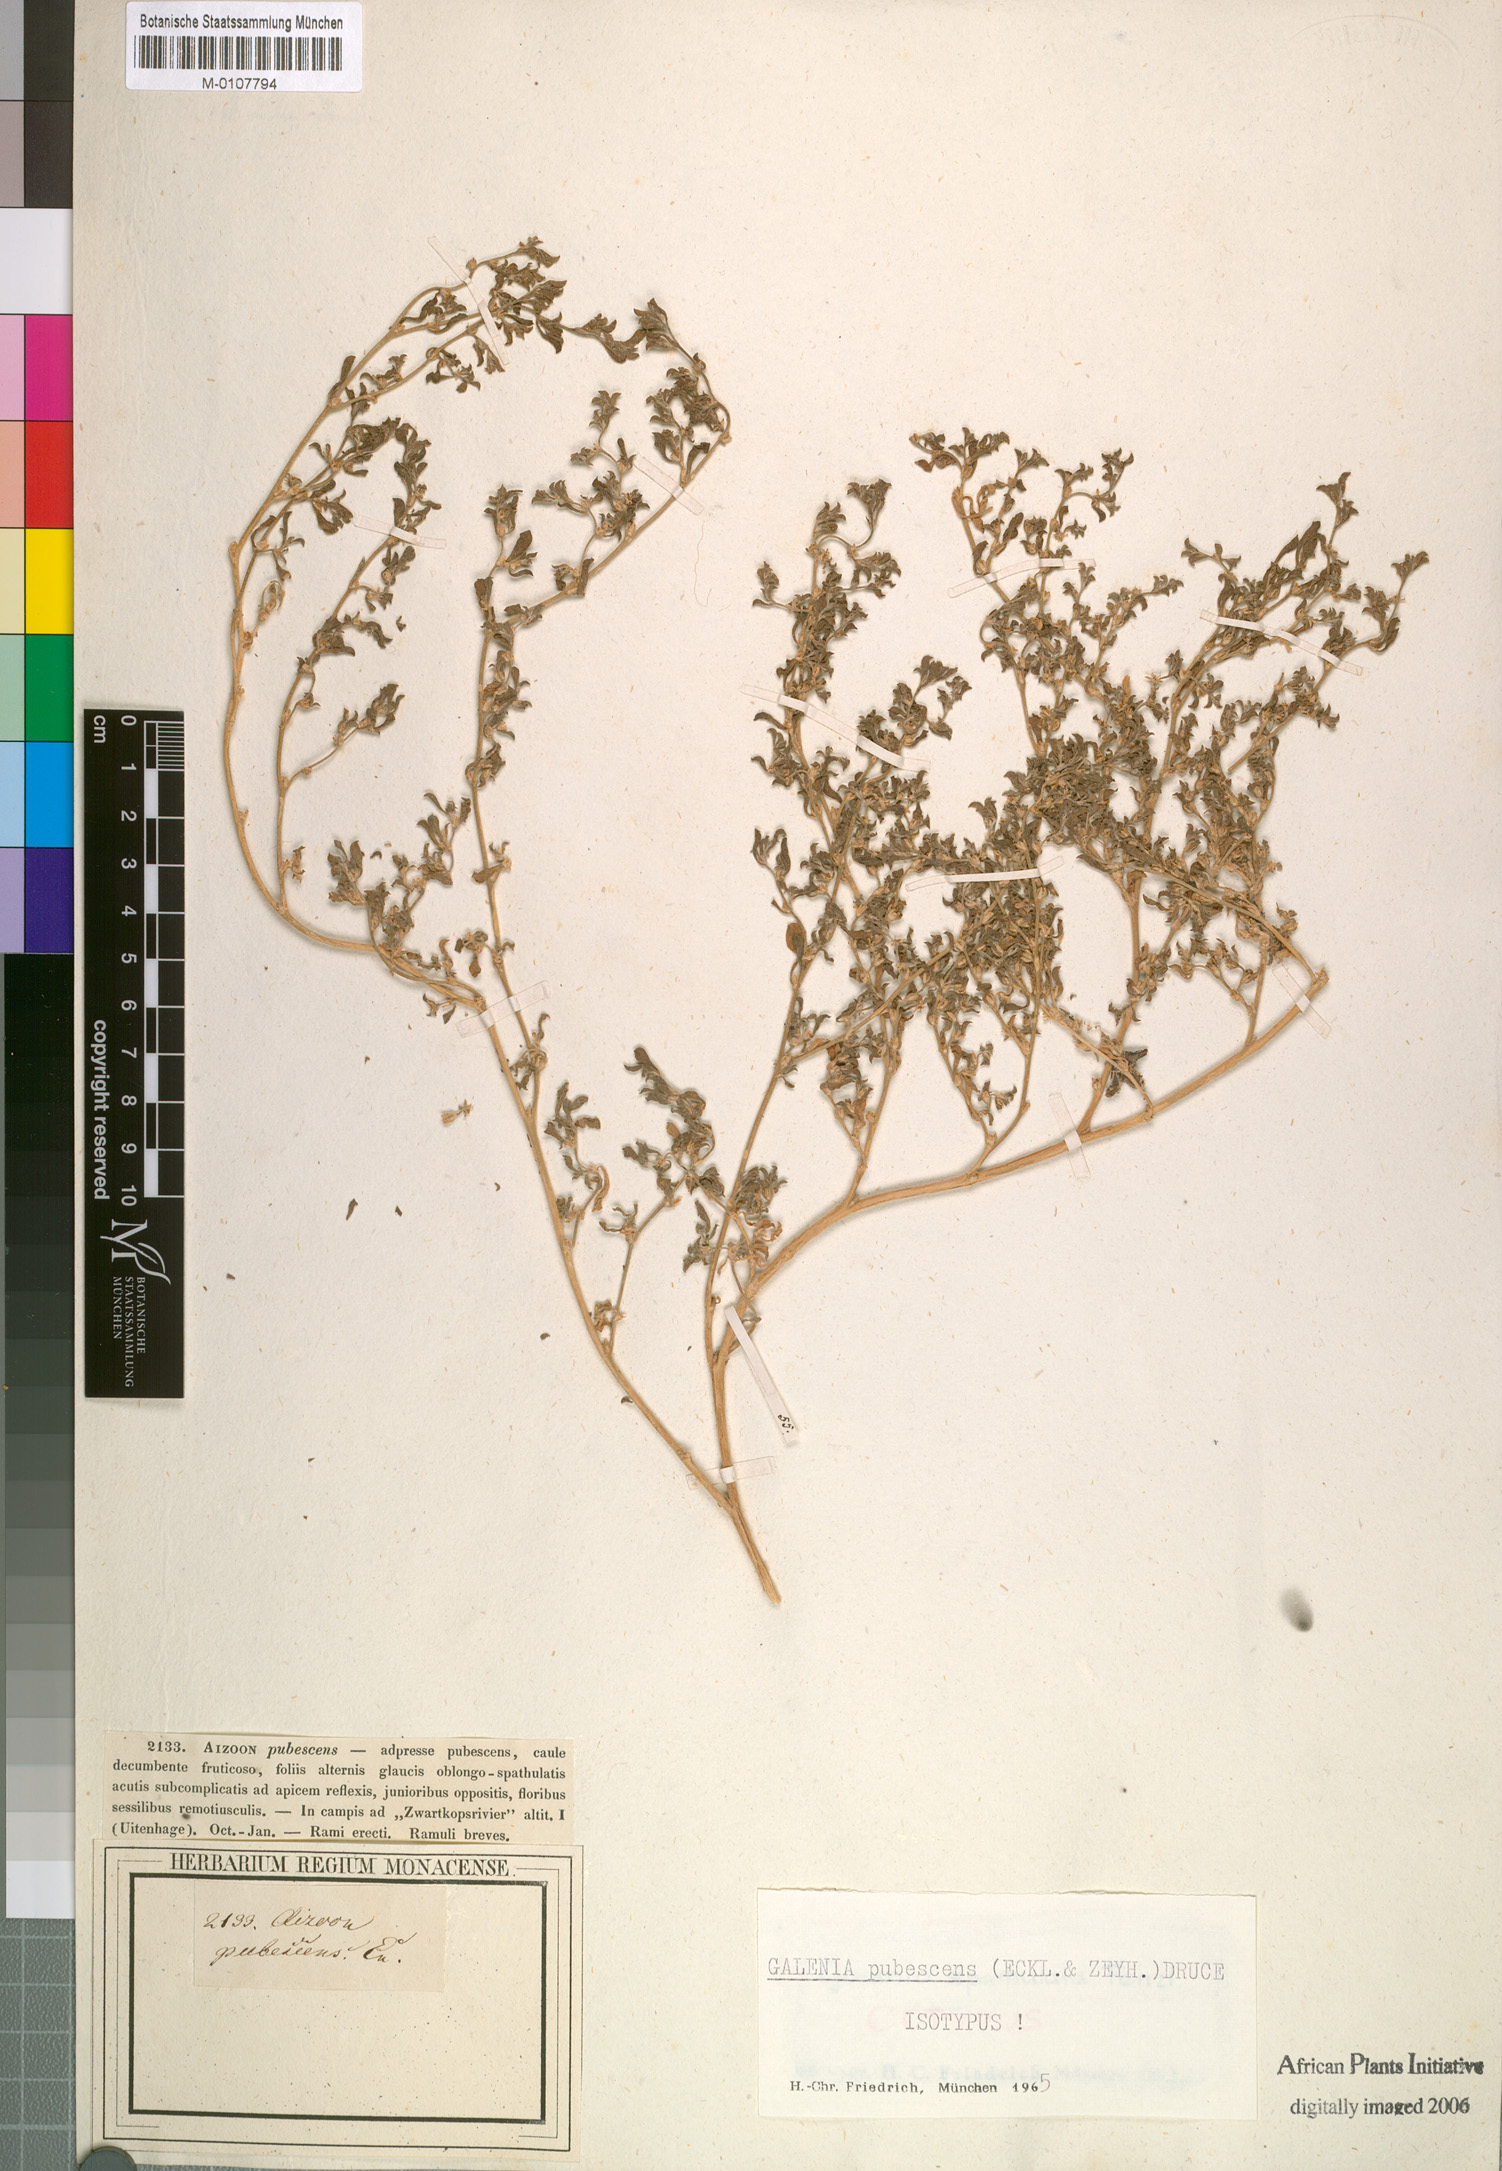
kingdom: Plantae
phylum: Tracheophyta
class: Magnoliopsida
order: Caryophyllales
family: Aizoaceae
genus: Aizoon
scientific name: Aizoon pubescens
